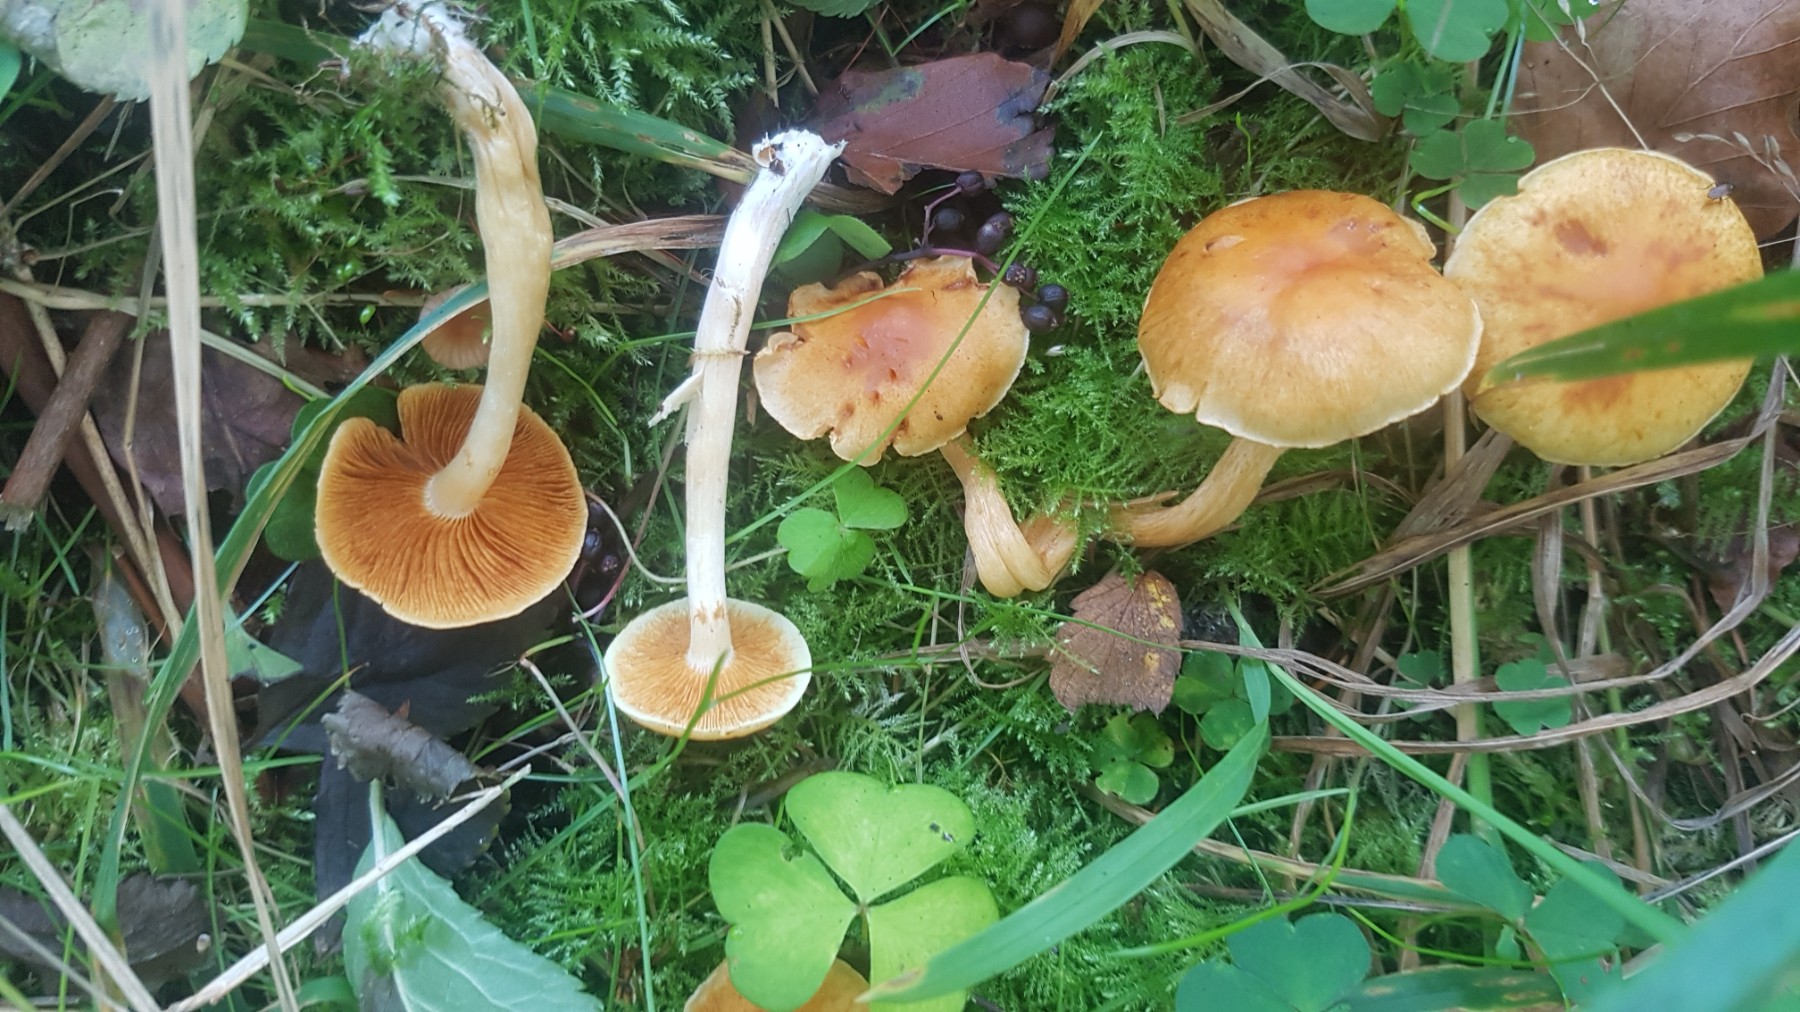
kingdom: Fungi
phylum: Basidiomycota
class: Agaricomycetes
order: Agaricales
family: Hymenogastraceae
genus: Gymnopilus
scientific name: Gymnopilus penetrans
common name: plettet flammehat
